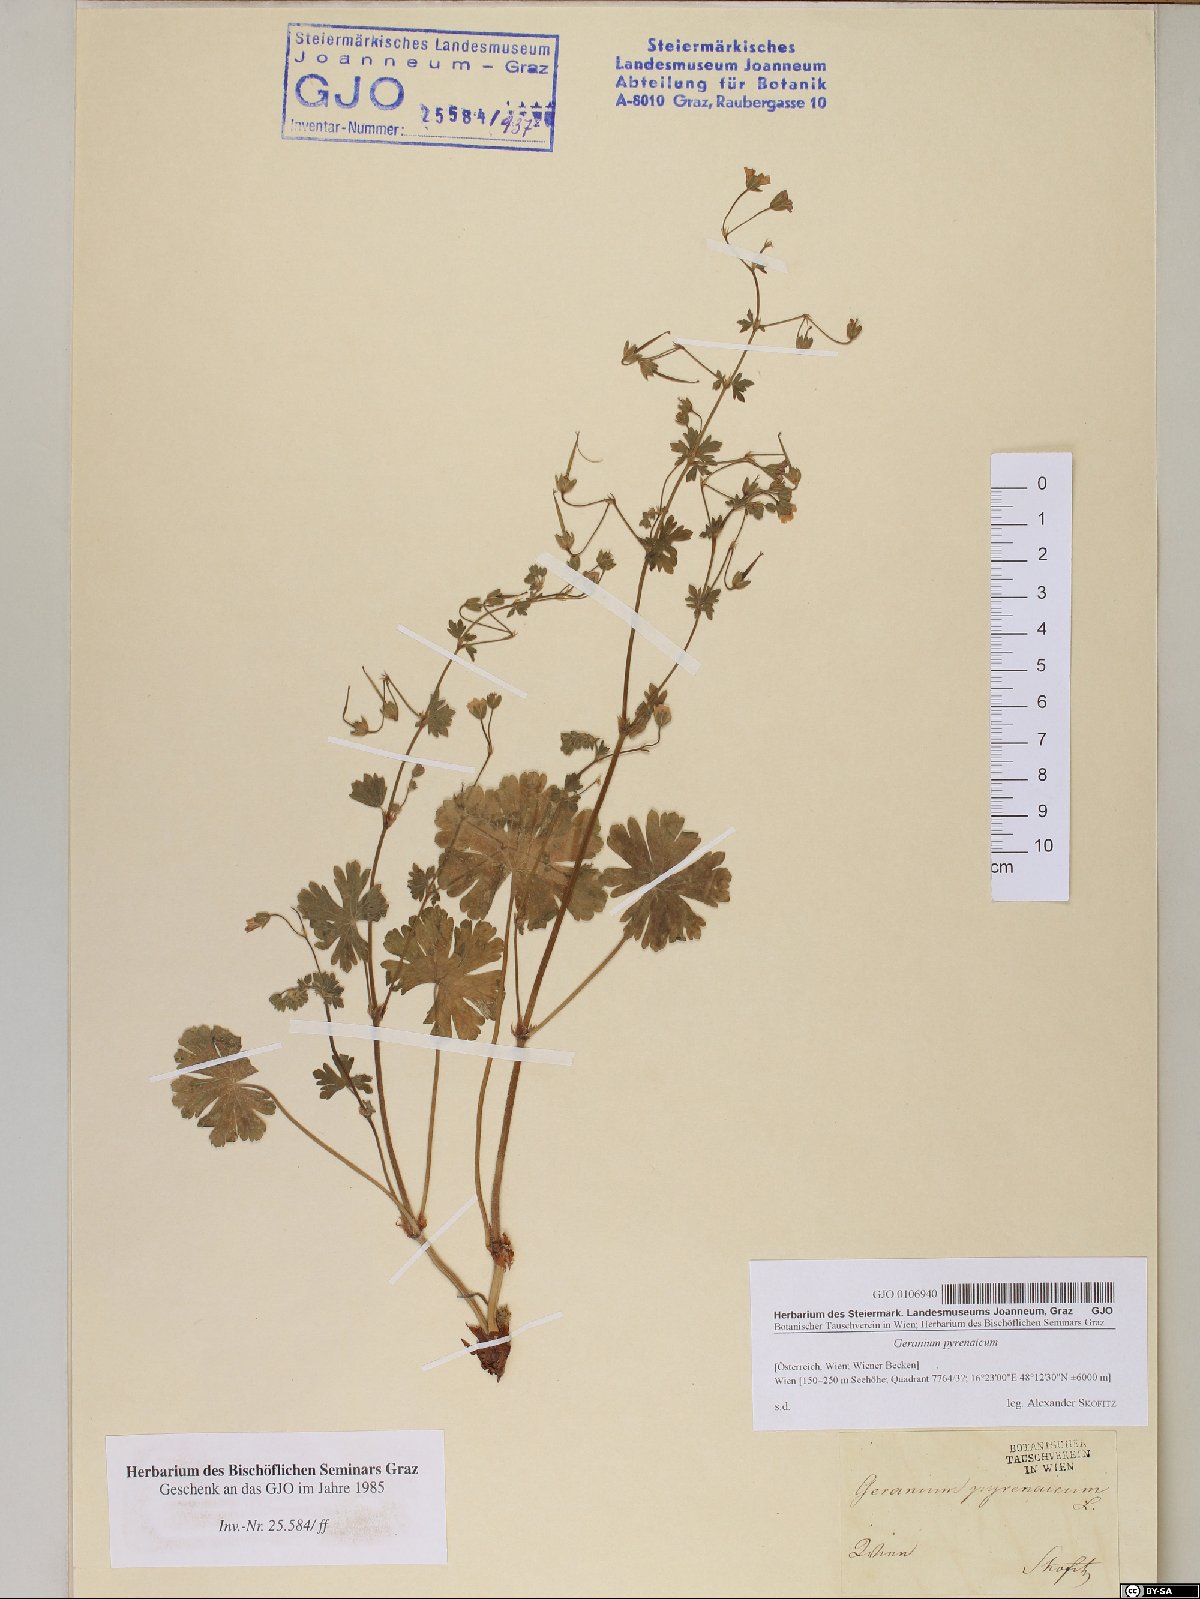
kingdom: Plantae
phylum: Tracheophyta
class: Magnoliopsida
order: Geraniales
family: Geraniaceae
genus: Geranium
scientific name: Geranium pyrenaicum
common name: Hedgerow crane's-bill
